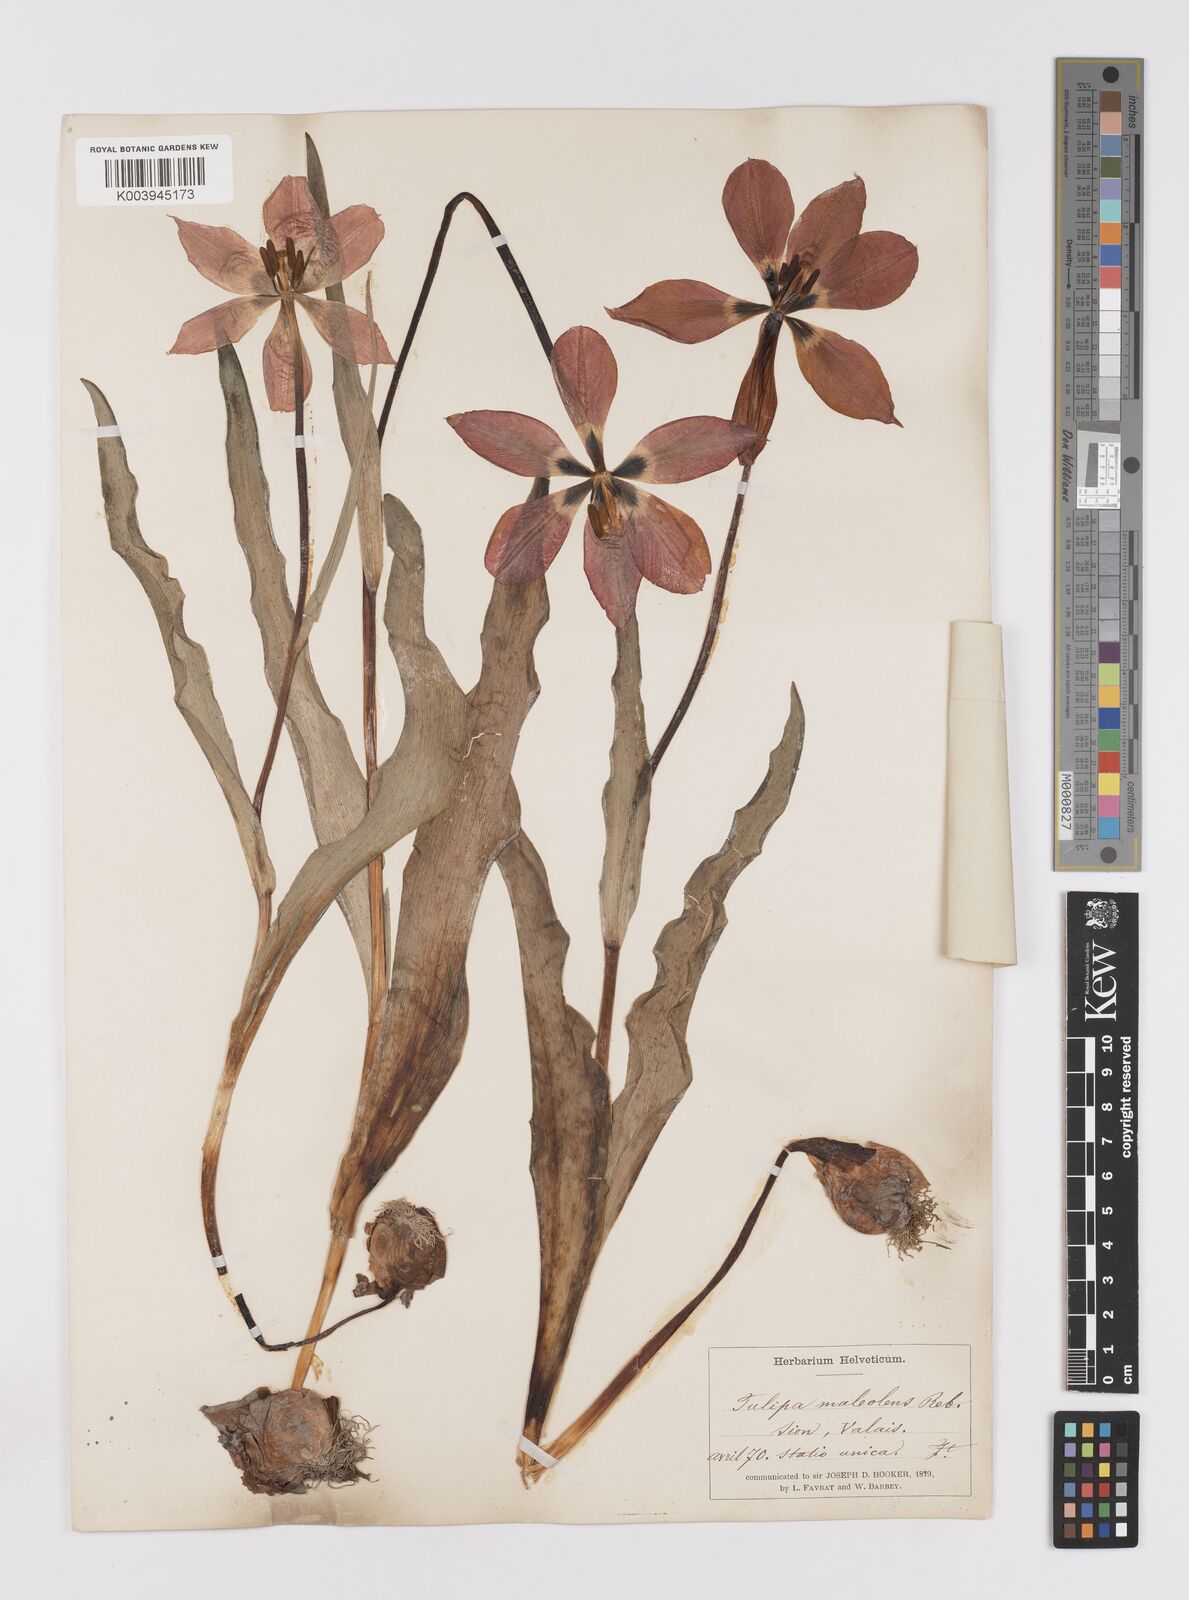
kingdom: Plantae
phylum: Tracheophyta
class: Liliopsida
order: Liliales
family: Liliaceae
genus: Tulipa
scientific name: Tulipa gesneriana
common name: Garden tulip
